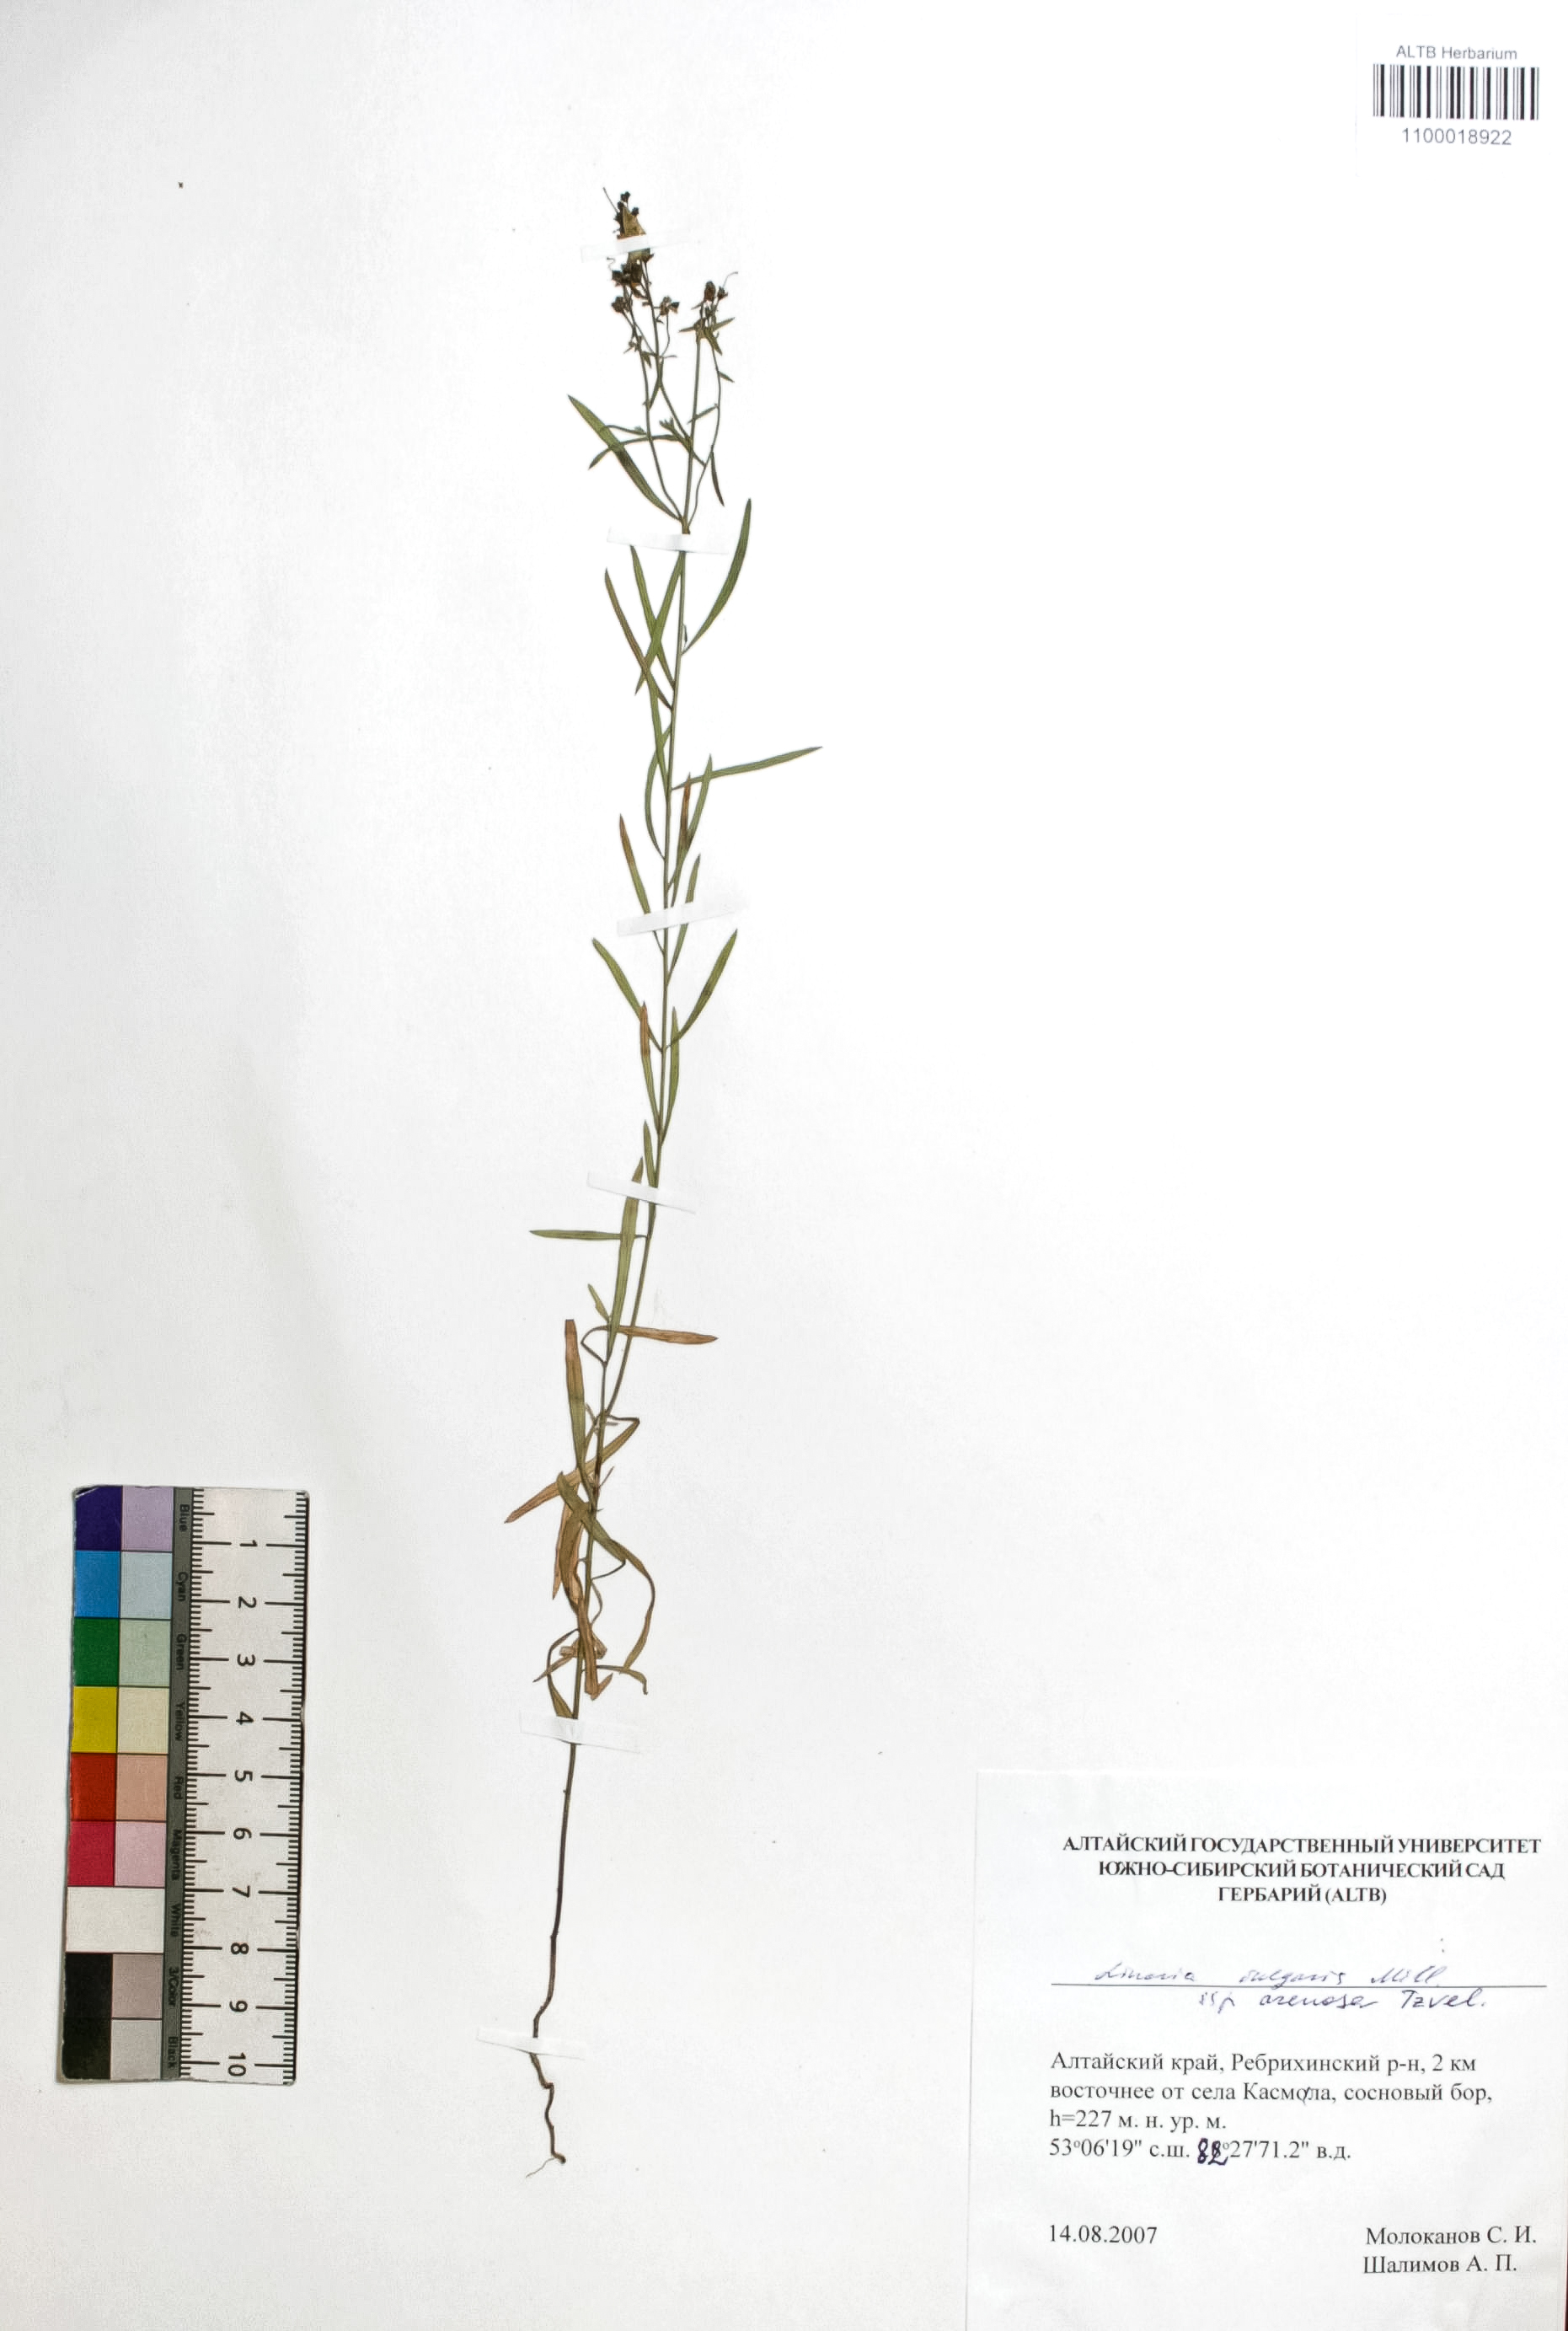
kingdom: Plantae
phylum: Tracheophyta
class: Magnoliopsida
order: Lamiales
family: Plantaginaceae
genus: Linaria
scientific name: Linaria vulgaris
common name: Butter and eggs
